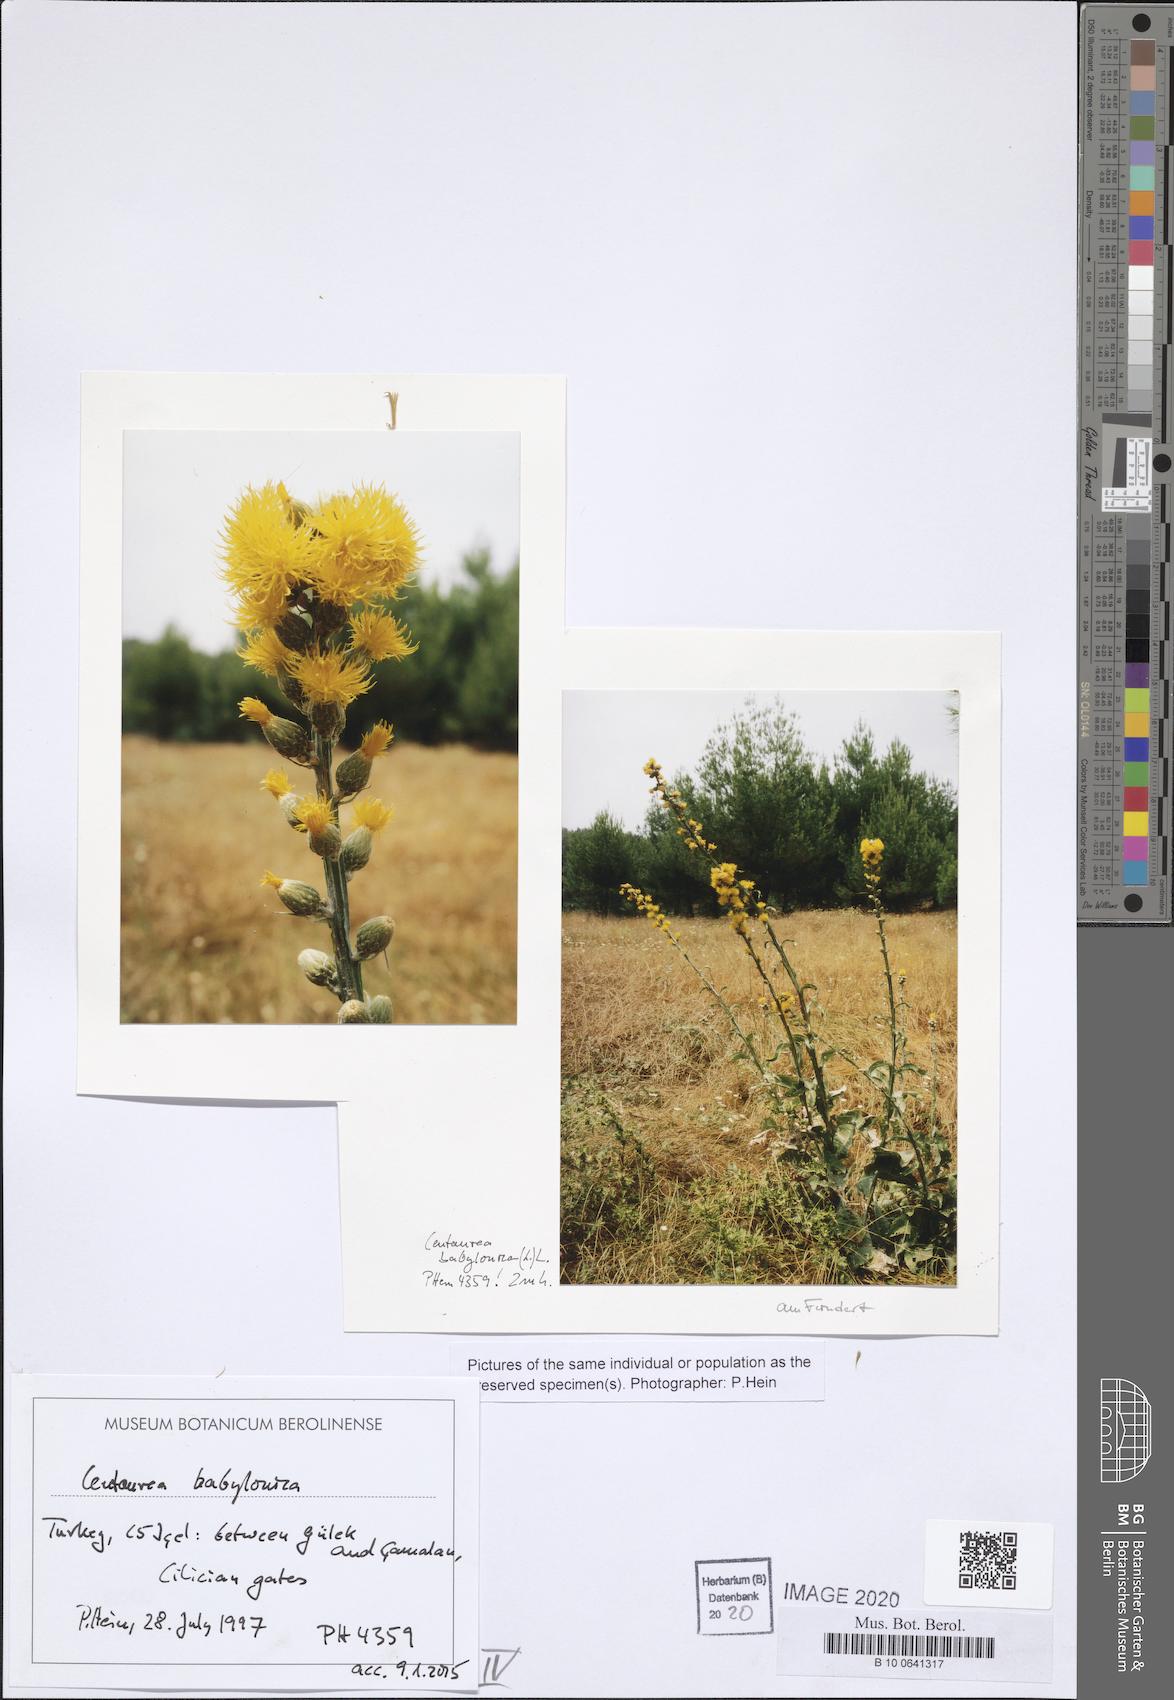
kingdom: Plantae
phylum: Tracheophyta
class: Magnoliopsida
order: Asterales
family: Asteraceae
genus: Centaurea
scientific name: Centaurea babylonica
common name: Syrian knapweed
